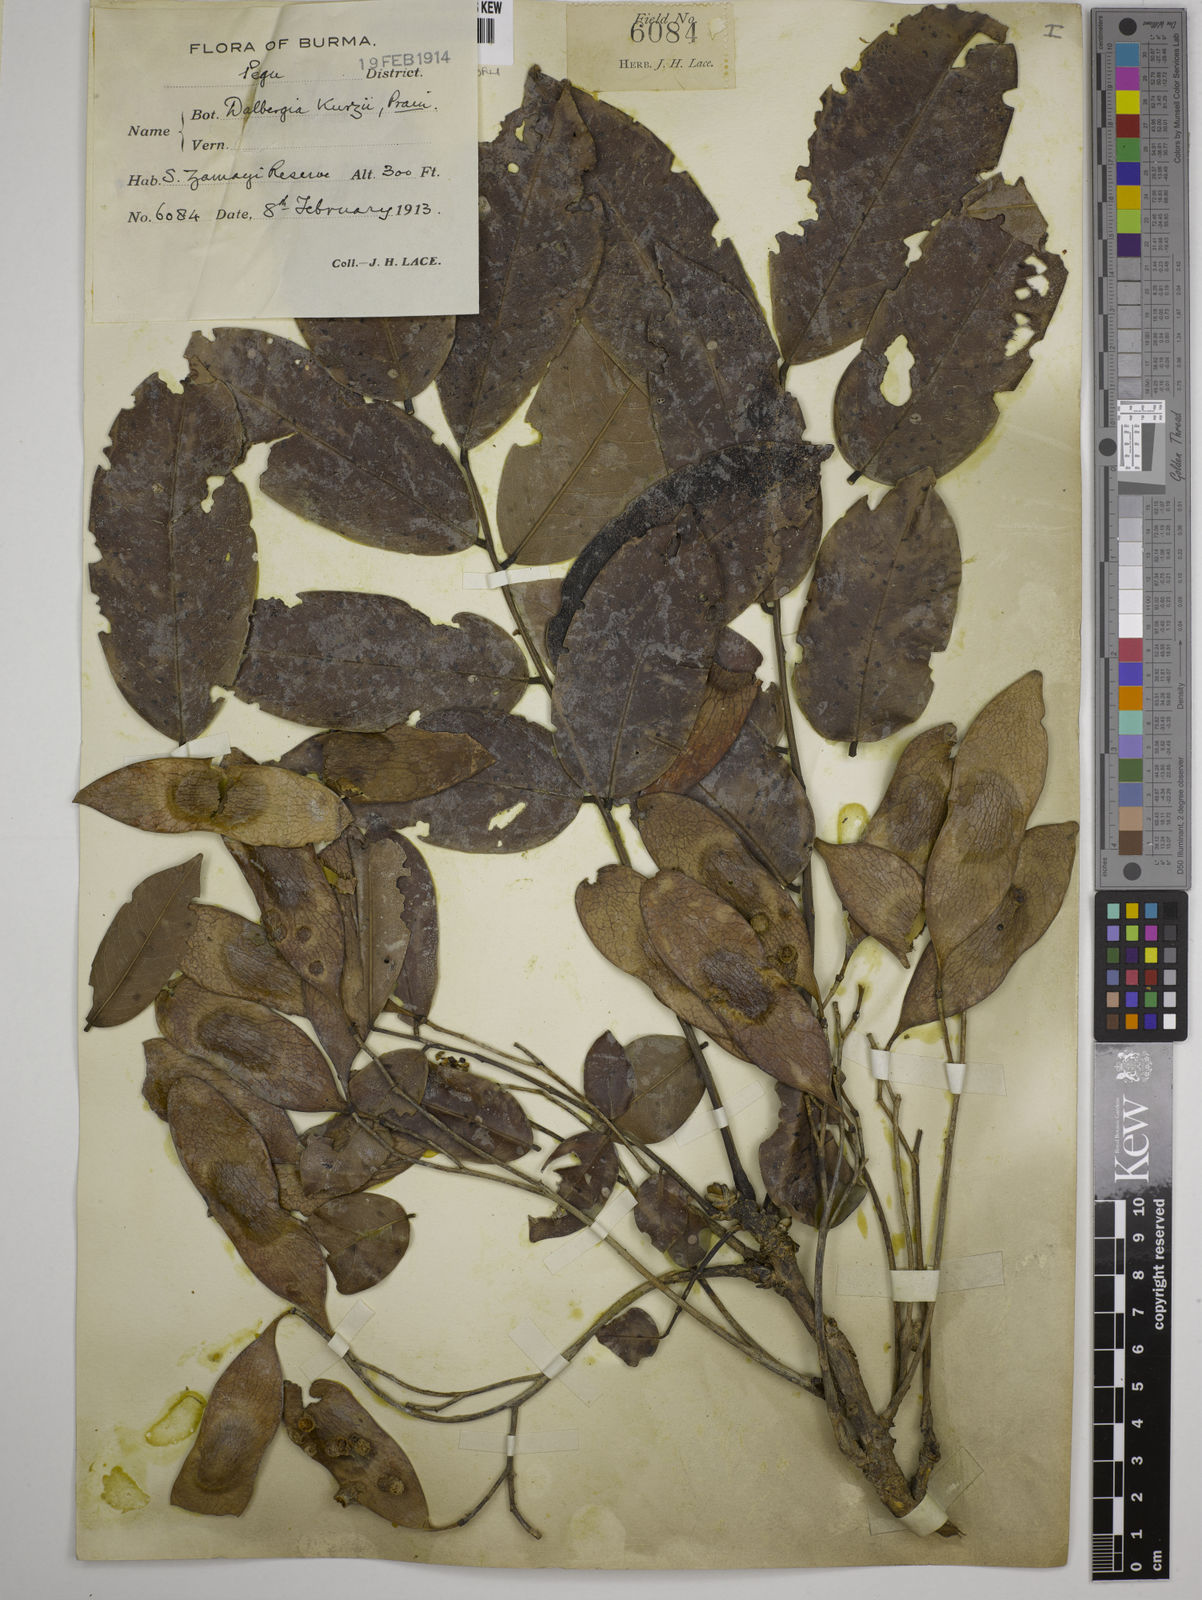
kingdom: Plantae
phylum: Tracheophyta
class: Magnoliopsida
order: Fabales
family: Fabaceae
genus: Dalbergia
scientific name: Dalbergia cana
